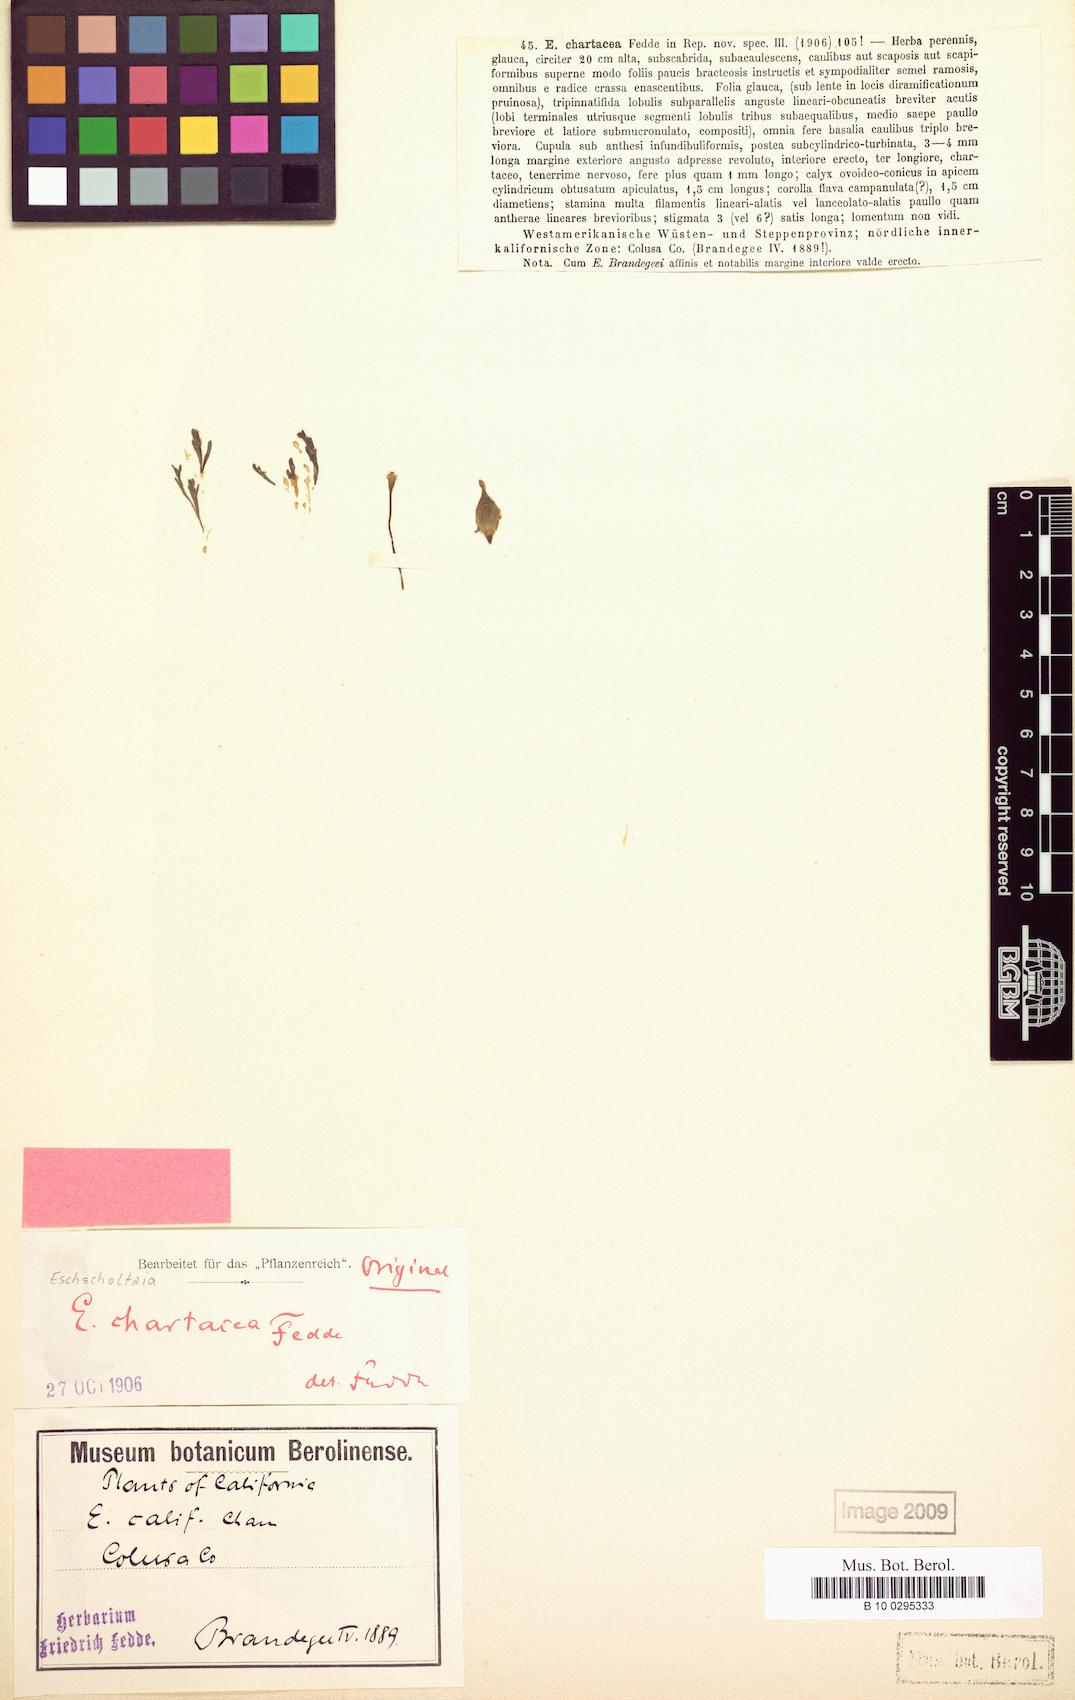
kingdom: Plantae
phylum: Tracheophyta
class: Magnoliopsida
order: Ranunculales
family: Papaveraceae
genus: Eschscholzia
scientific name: Eschscholzia californica
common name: California poppy
